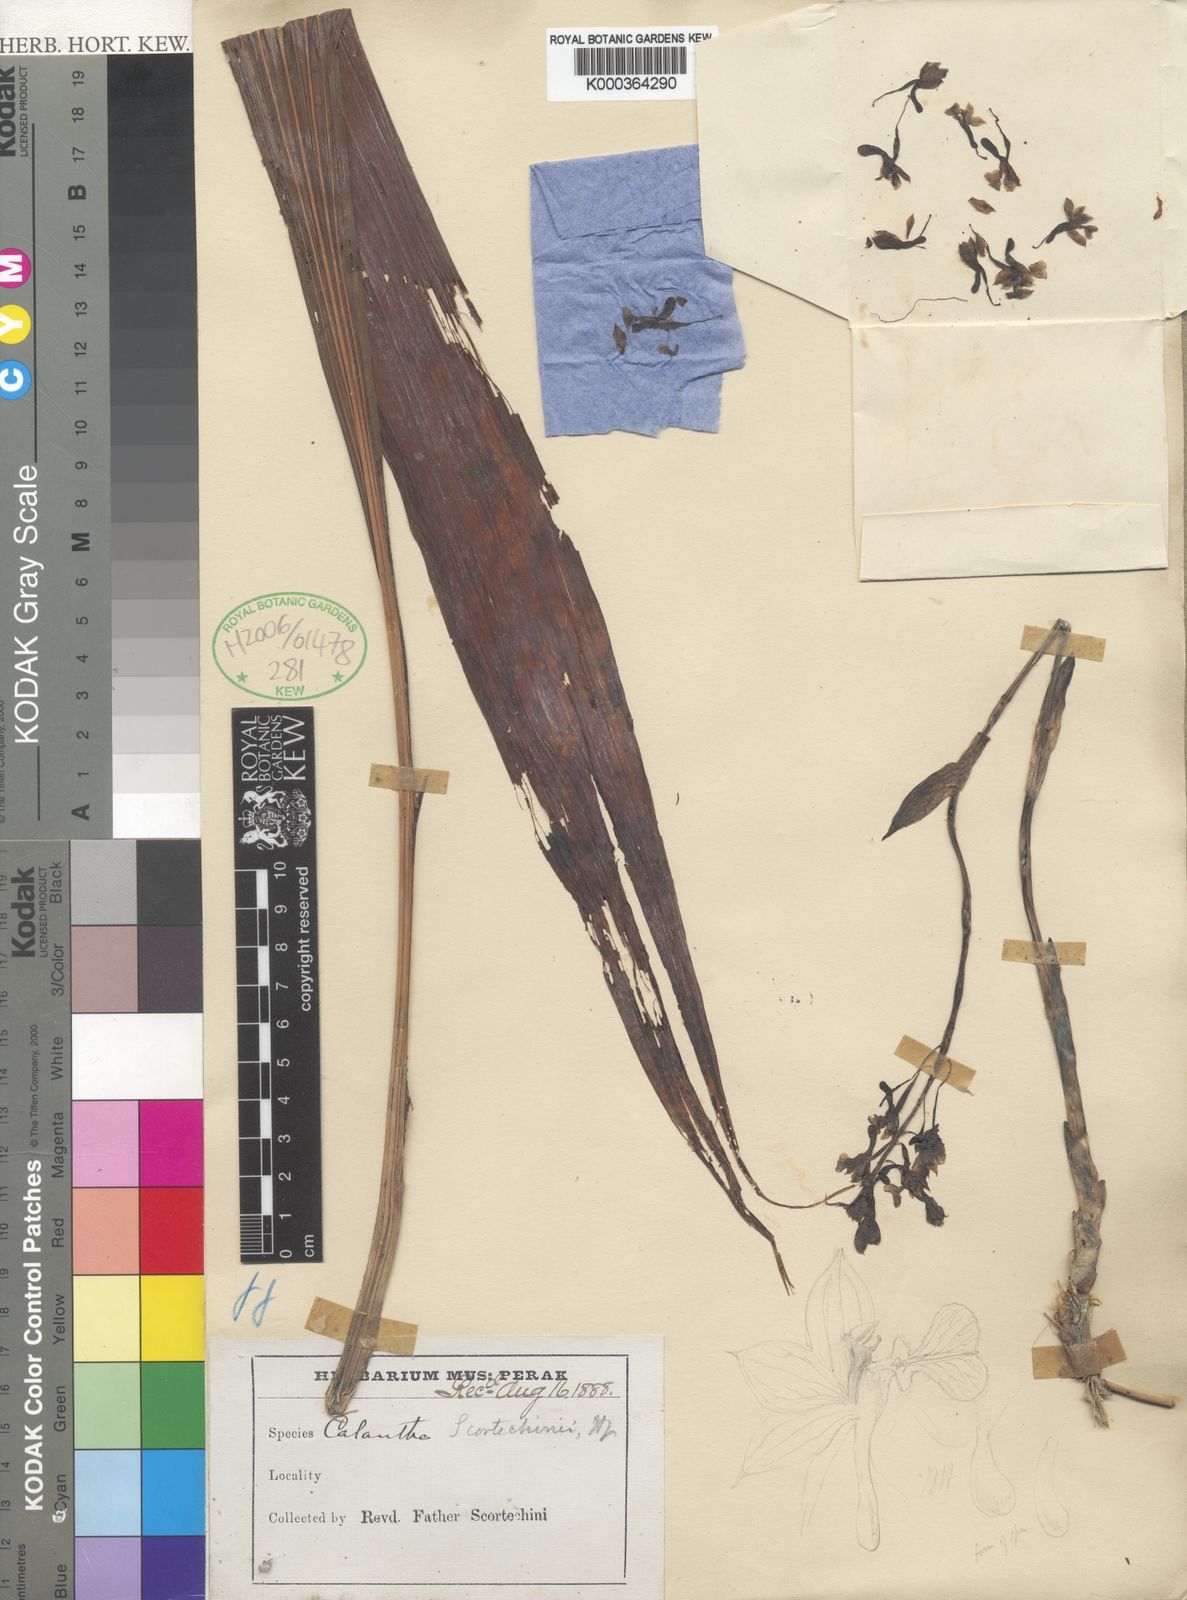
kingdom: Plantae
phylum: Tracheophyta
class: Liliopsida
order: Asparagales
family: Orchidaceae
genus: Calanthe
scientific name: Calanthe speciosa
